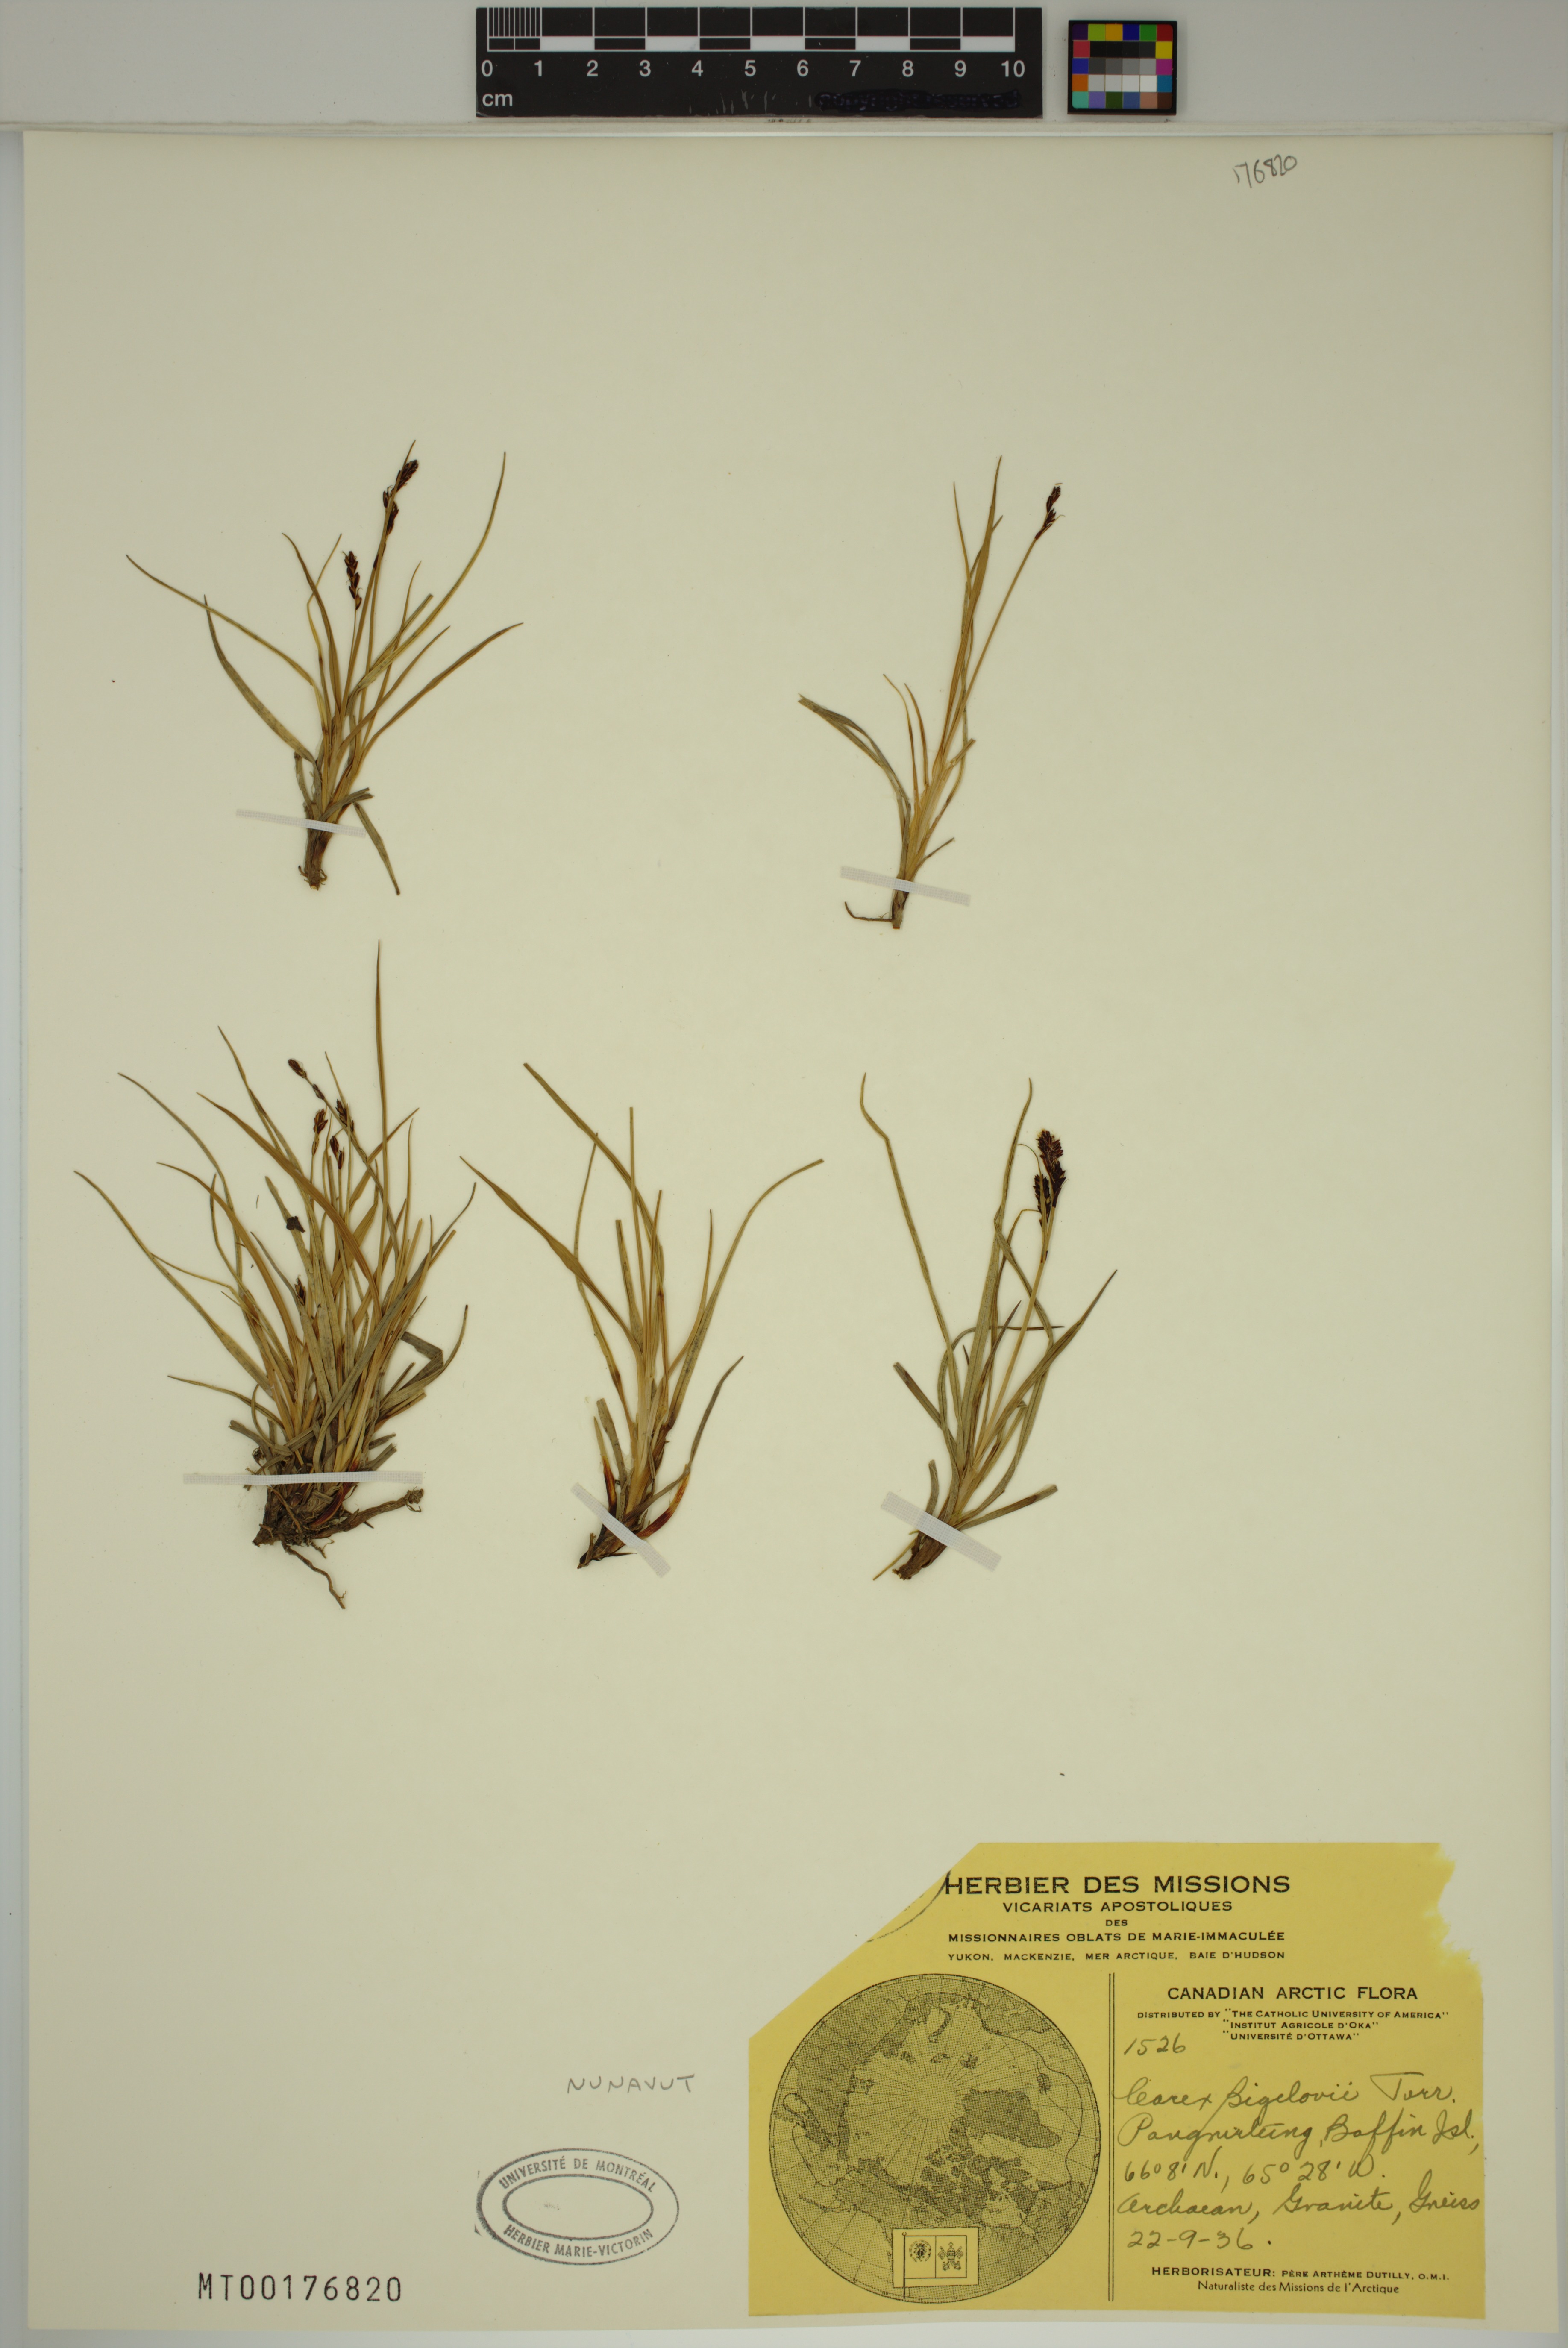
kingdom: Plantae
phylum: Tracheophyta
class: Liliopsida
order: Poales
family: Cyperaceae
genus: Carex
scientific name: Carex bigelowii
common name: Stiff sedge
